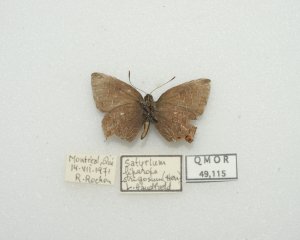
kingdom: Animalia
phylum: Arthropoda
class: Insecta
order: Lepidoptera
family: Lycaenidae
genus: Satyrium
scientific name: Satyrium liparops
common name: Striped Hairstreak
